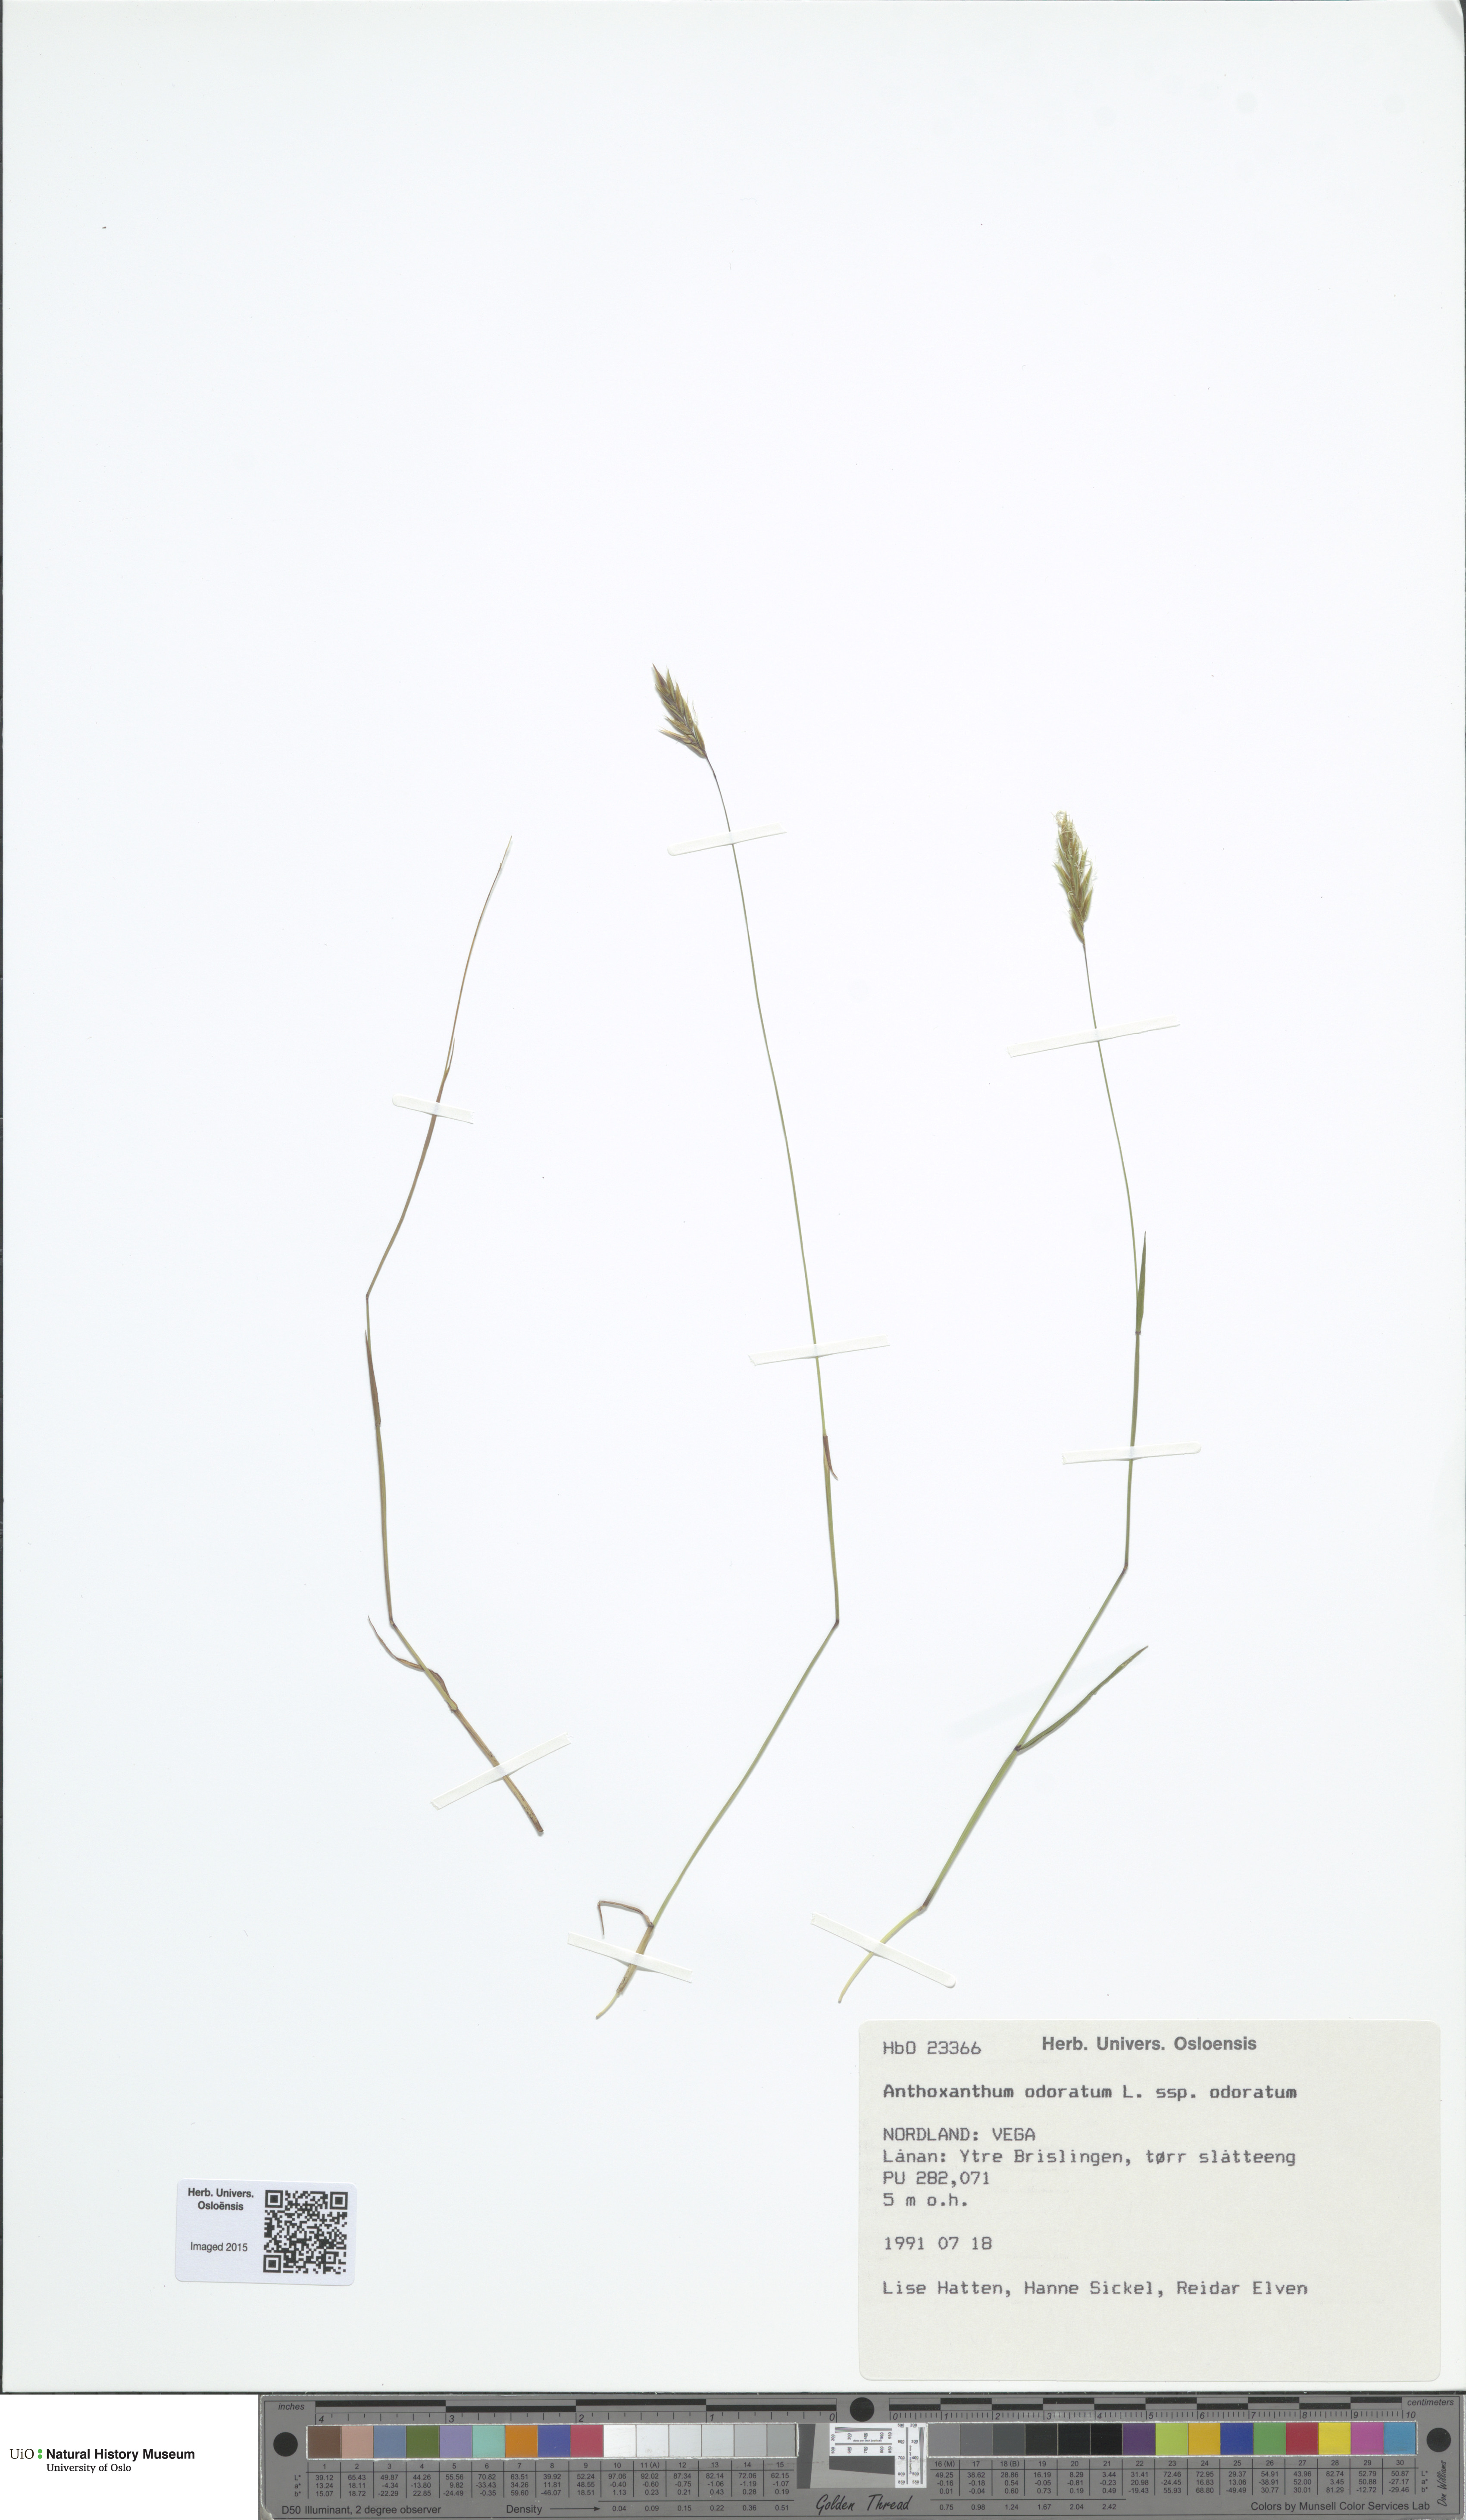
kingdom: Plantae
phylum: Tracheophyta
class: Liliopsida
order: Poales
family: Poaceae
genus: Anthoxanthum
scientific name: Anthoxanthum odoratum
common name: Sweet vernalgrass
